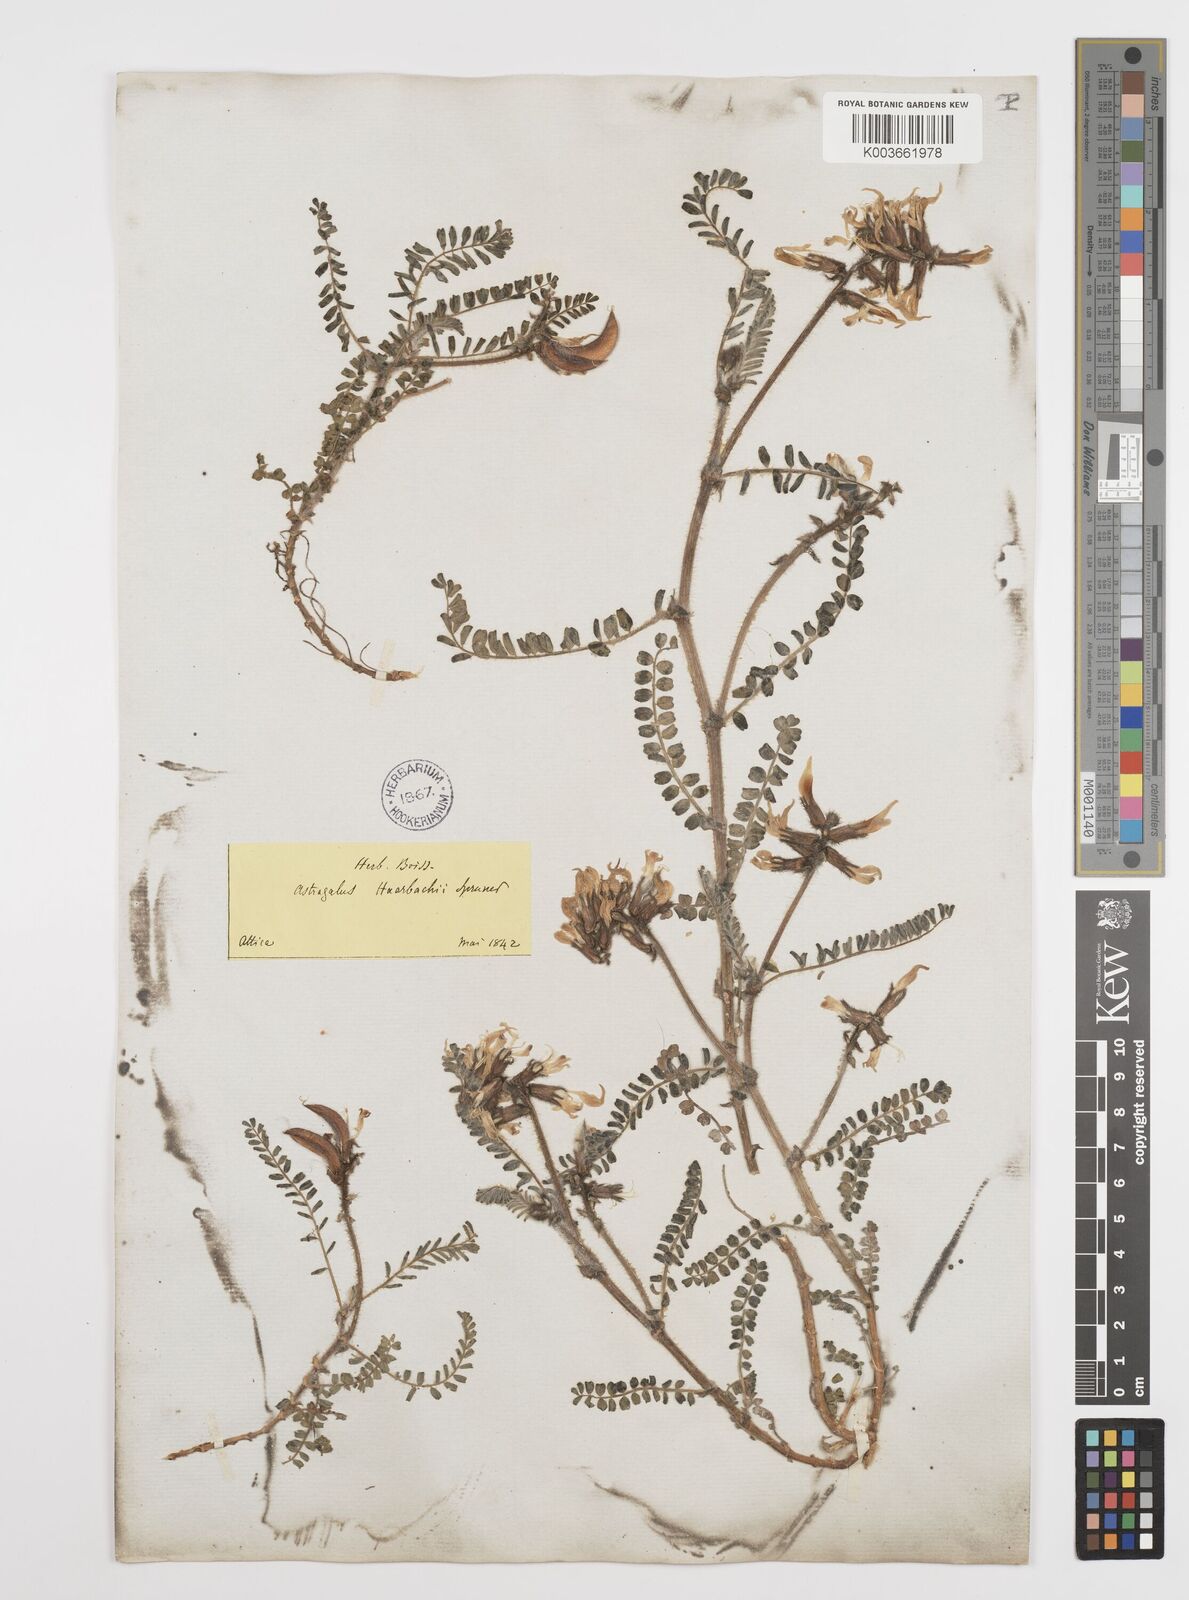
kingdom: Plantae
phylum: Tracheophyta
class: Magnoliopsida
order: Fabales
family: Fabaceae
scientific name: Fabaceae
